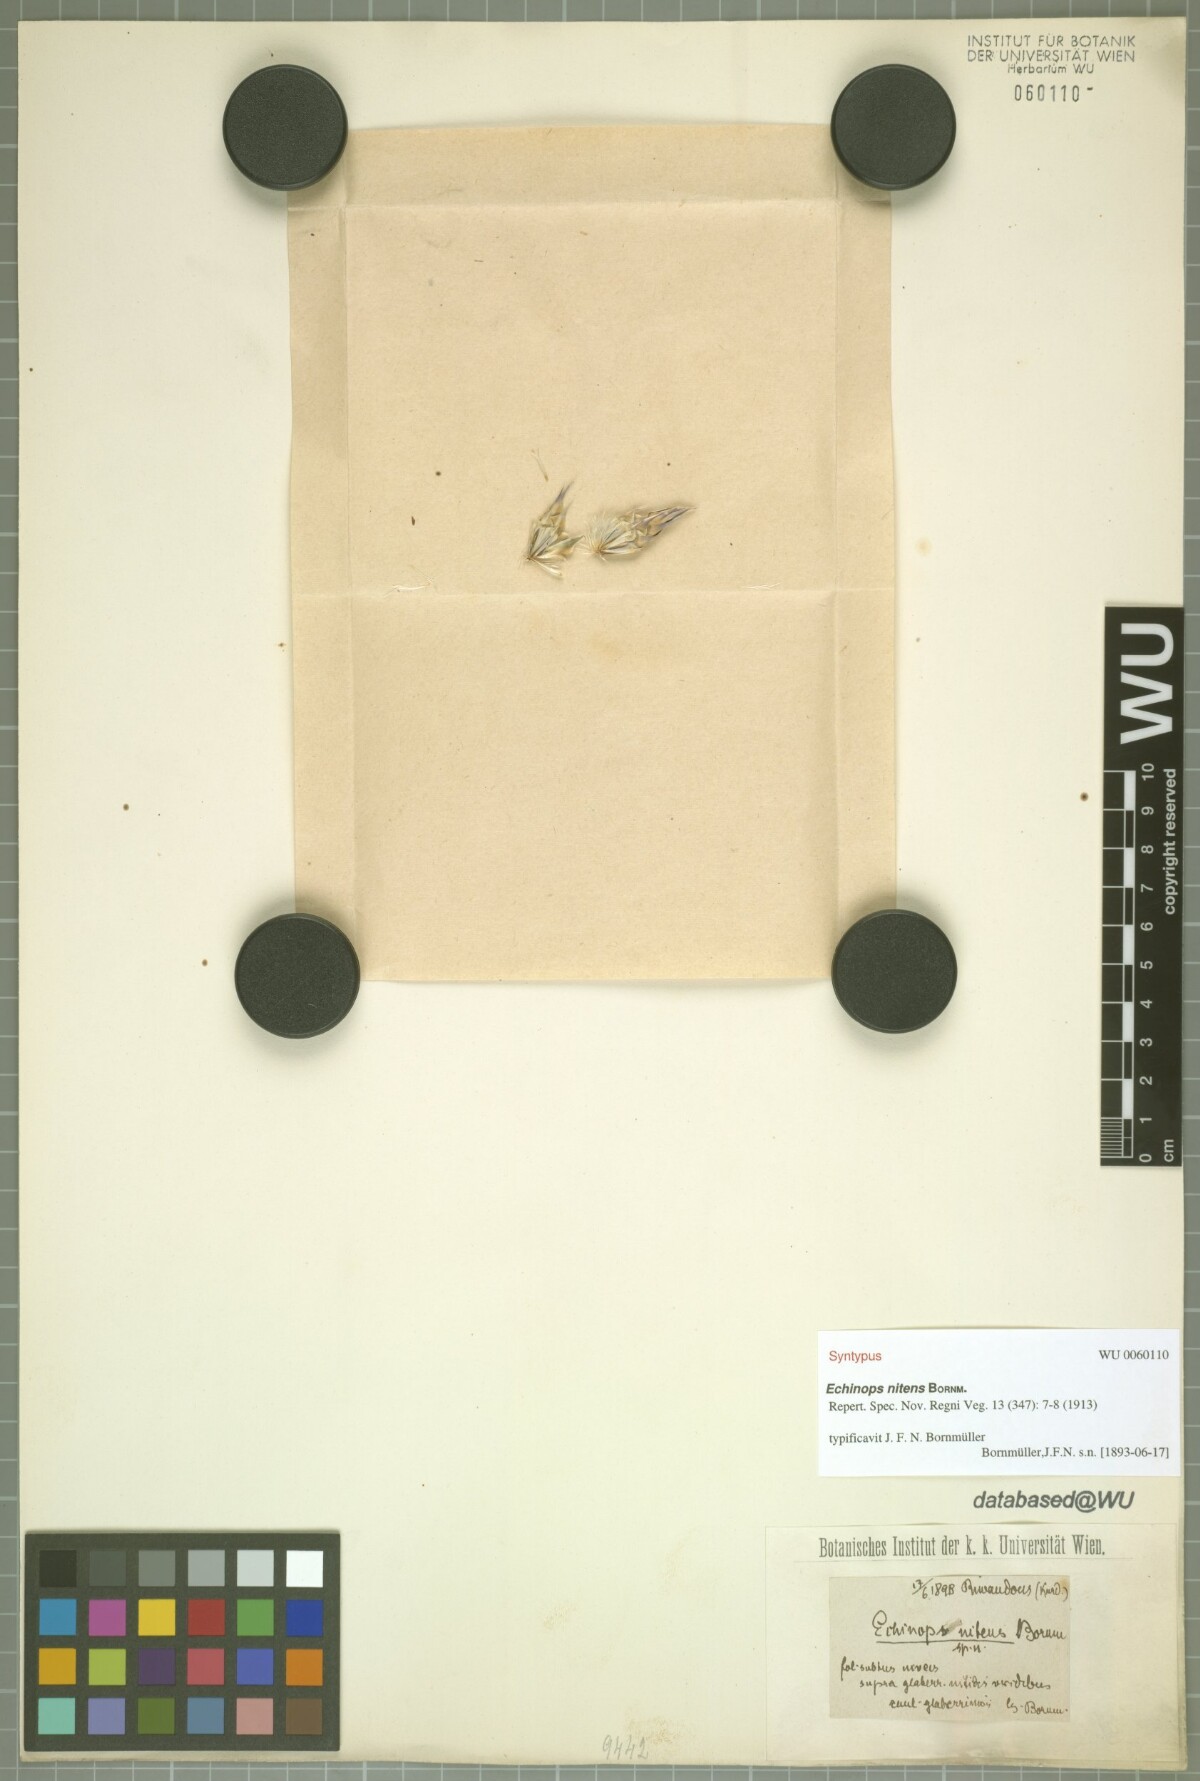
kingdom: Plantae
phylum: Tracheophyta
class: Magnoliopsida
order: Asterales
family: Asteraceae
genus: Echinops
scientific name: Echinops nitens
